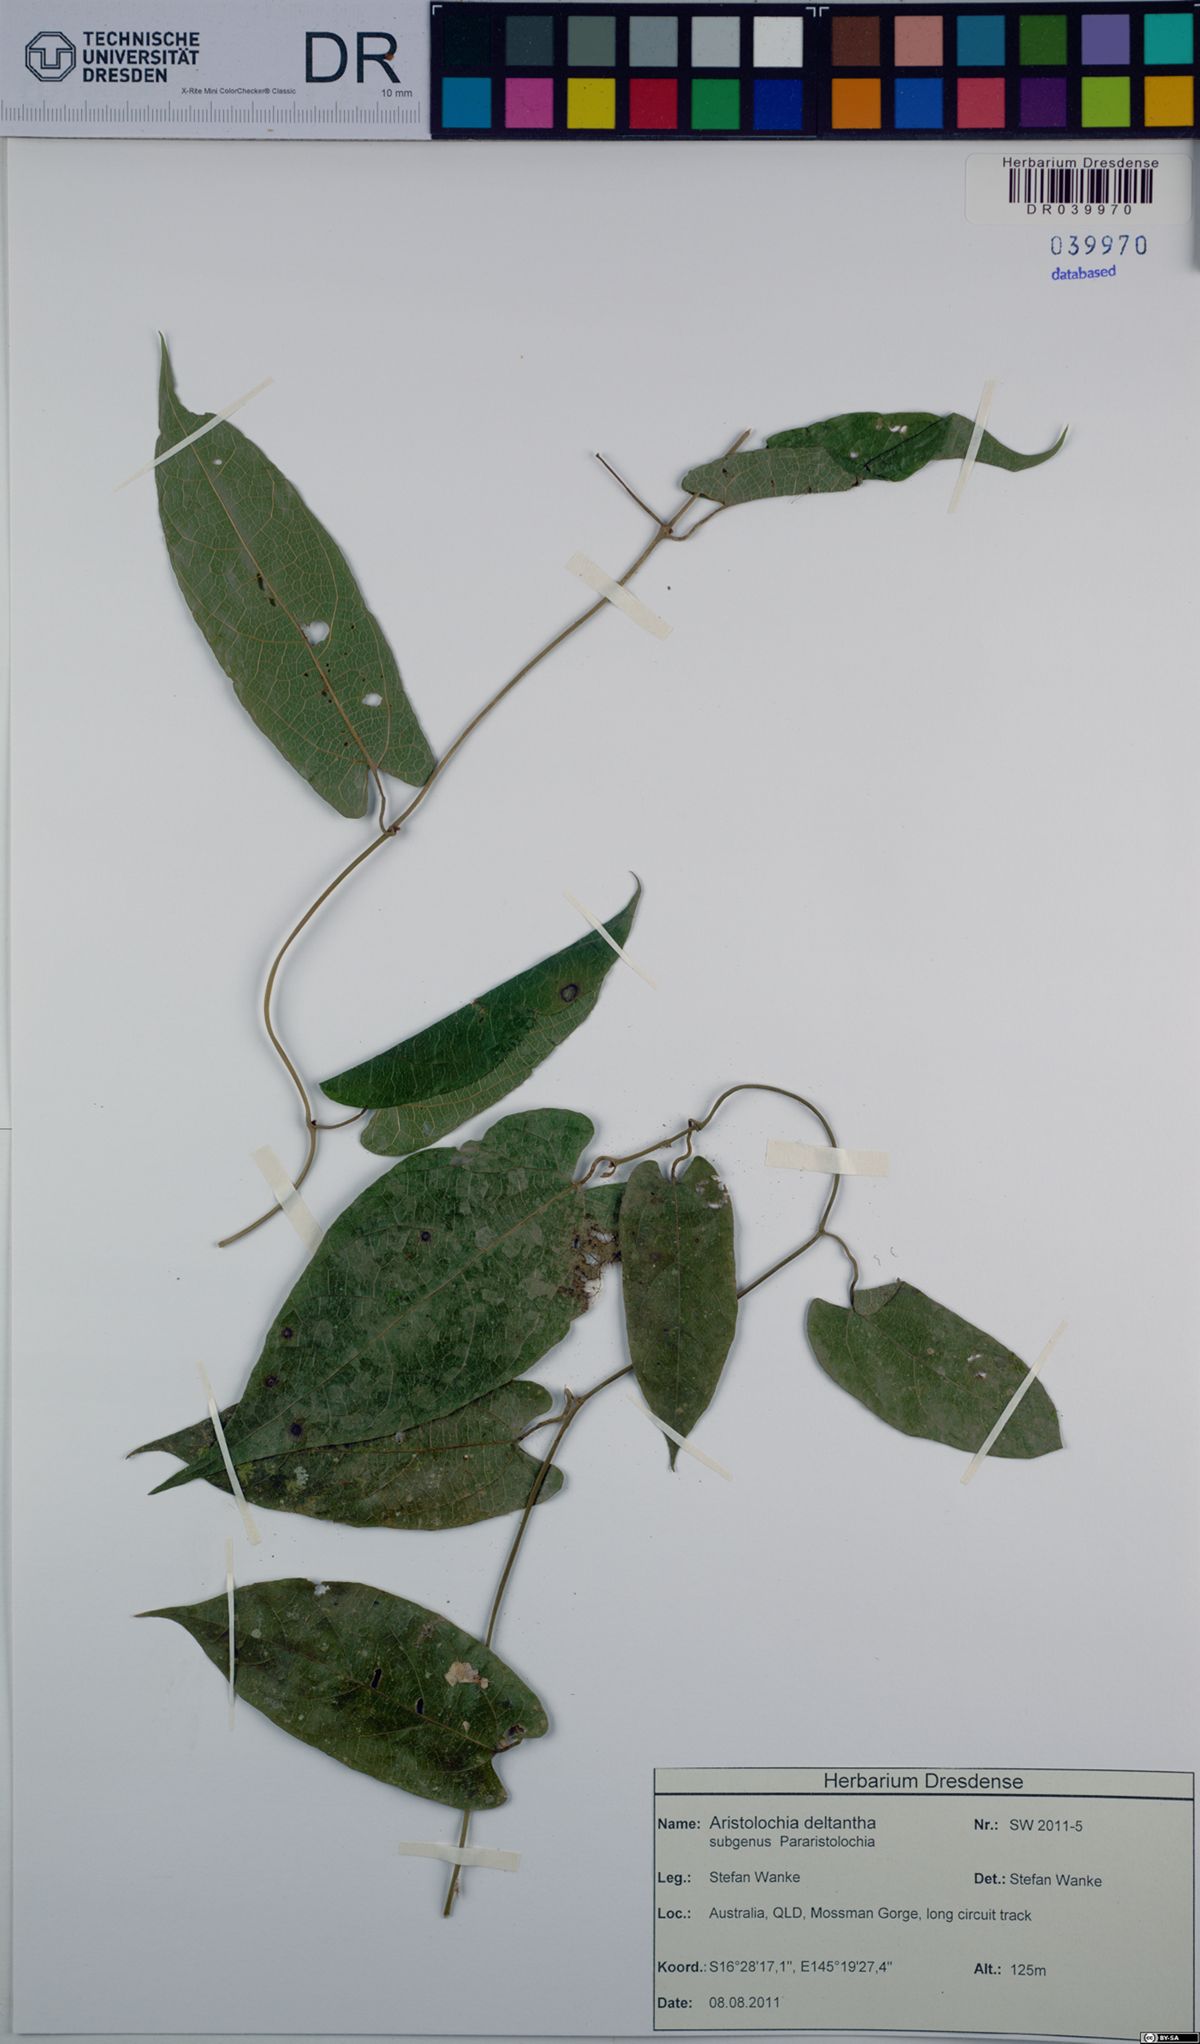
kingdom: Plantae
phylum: Tracheophyta
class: Magnoliopsida
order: Piperales
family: Aristolochiaceae
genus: Aristolochia
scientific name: Aristolochia deltantha
